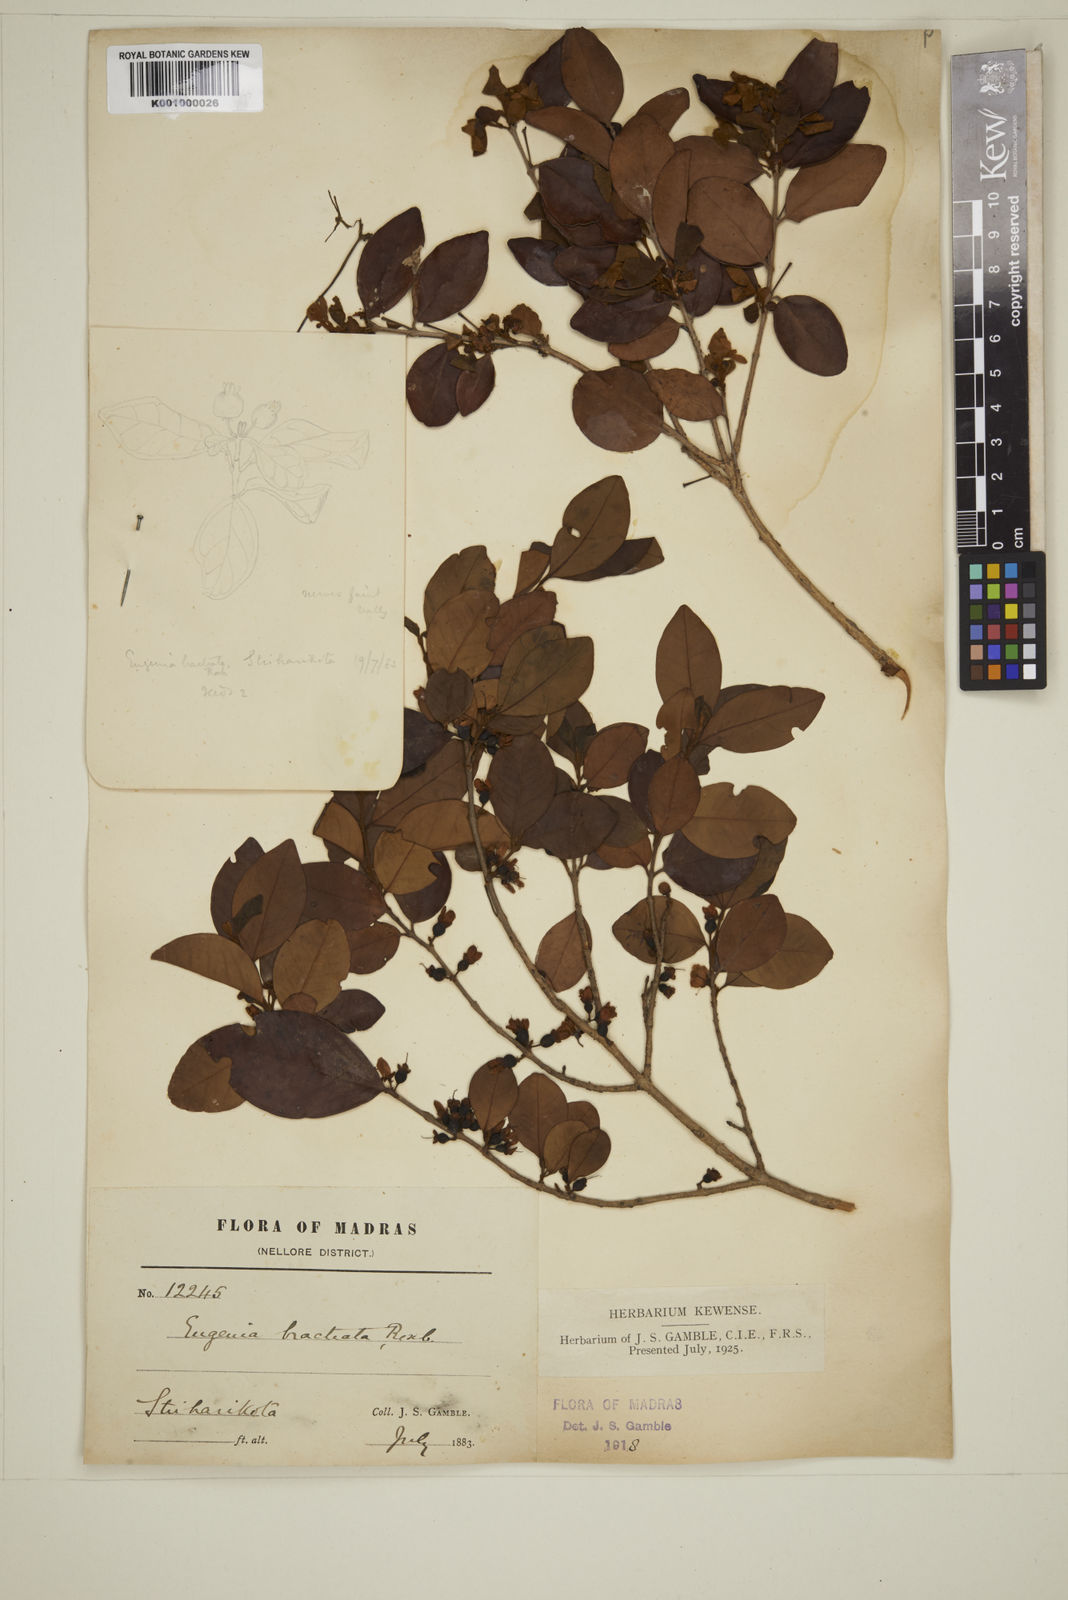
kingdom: Plantae
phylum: Tracheophyta
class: Magnoliopsida
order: Myrtales
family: Myrtaceae
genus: Myrcia
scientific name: Myrcia bracteata
